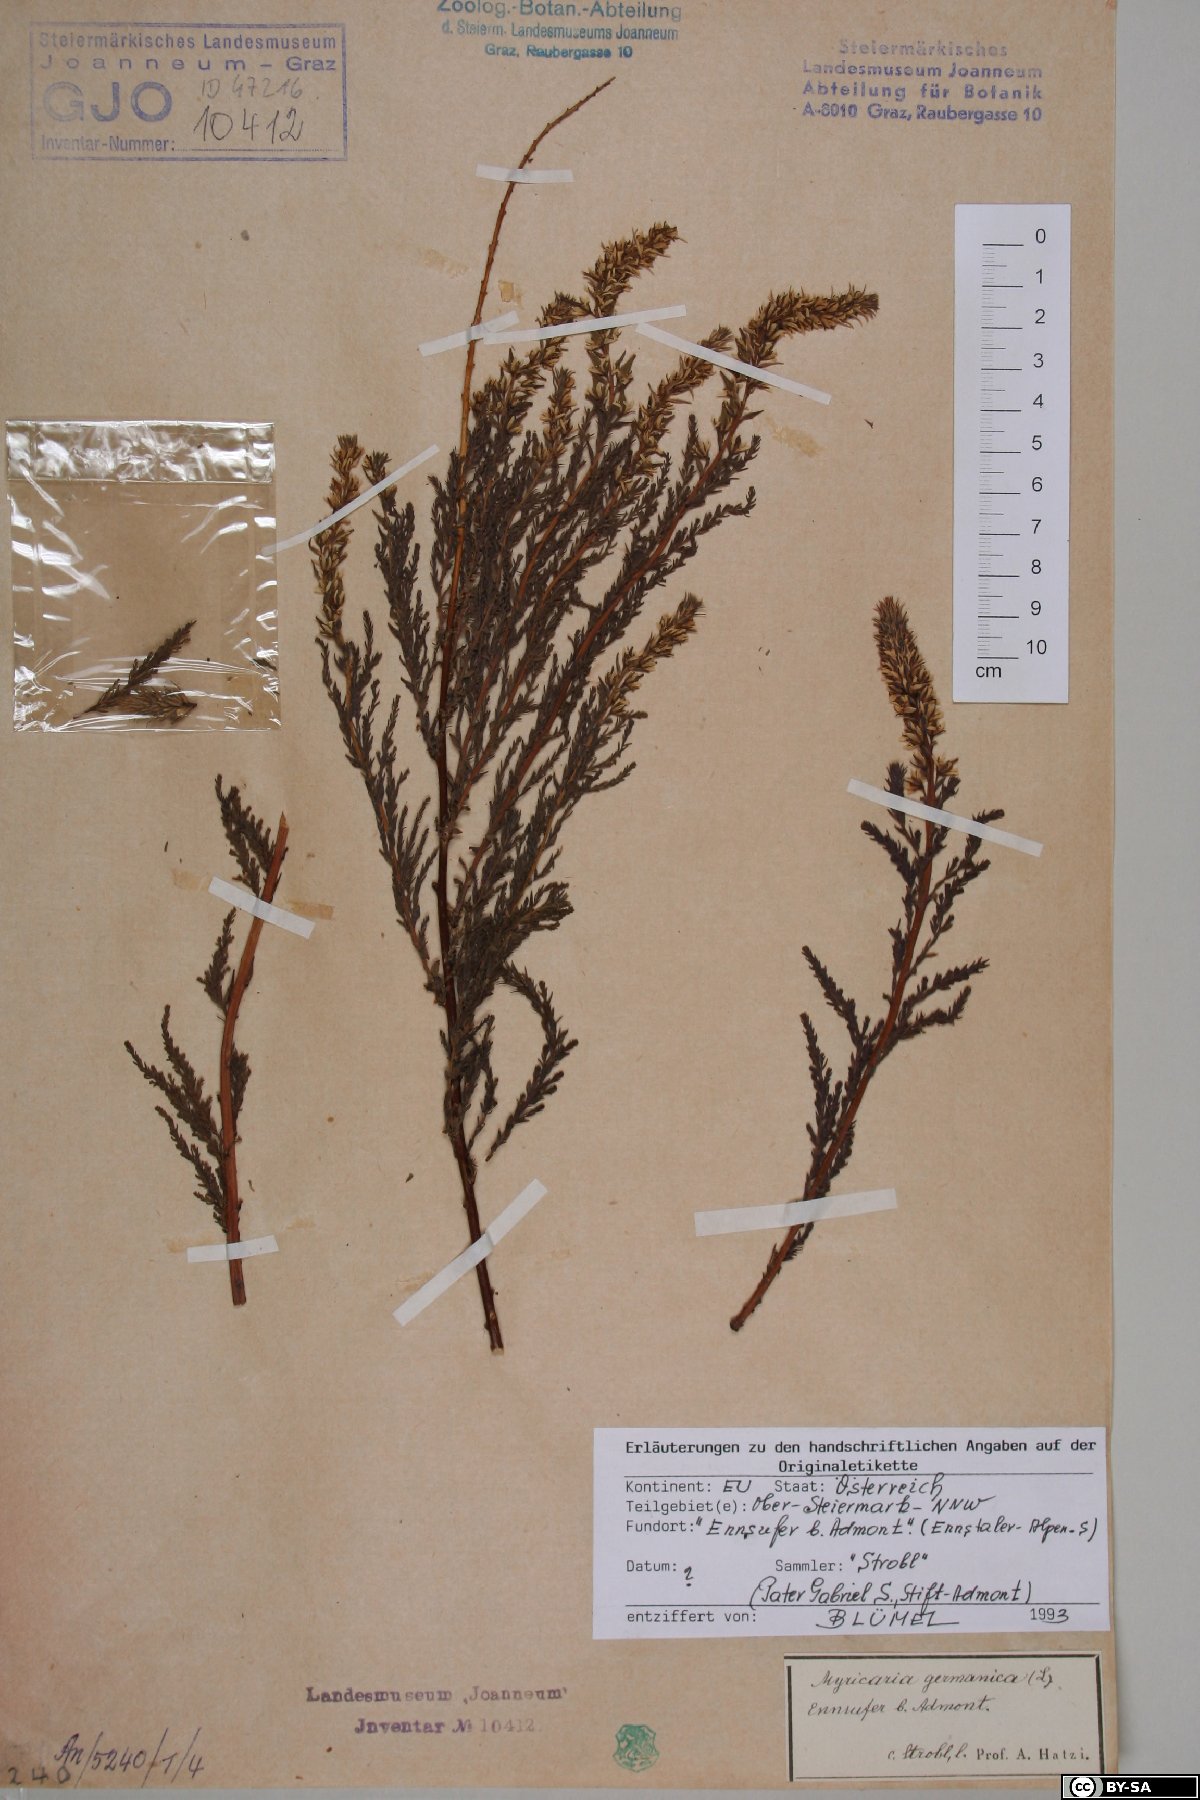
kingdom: Plantae
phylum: Tracheophyta
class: Magnoliopsida
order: Caryophyllales
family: Tamaricaceae
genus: Myricaria
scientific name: Myricaria germanica
